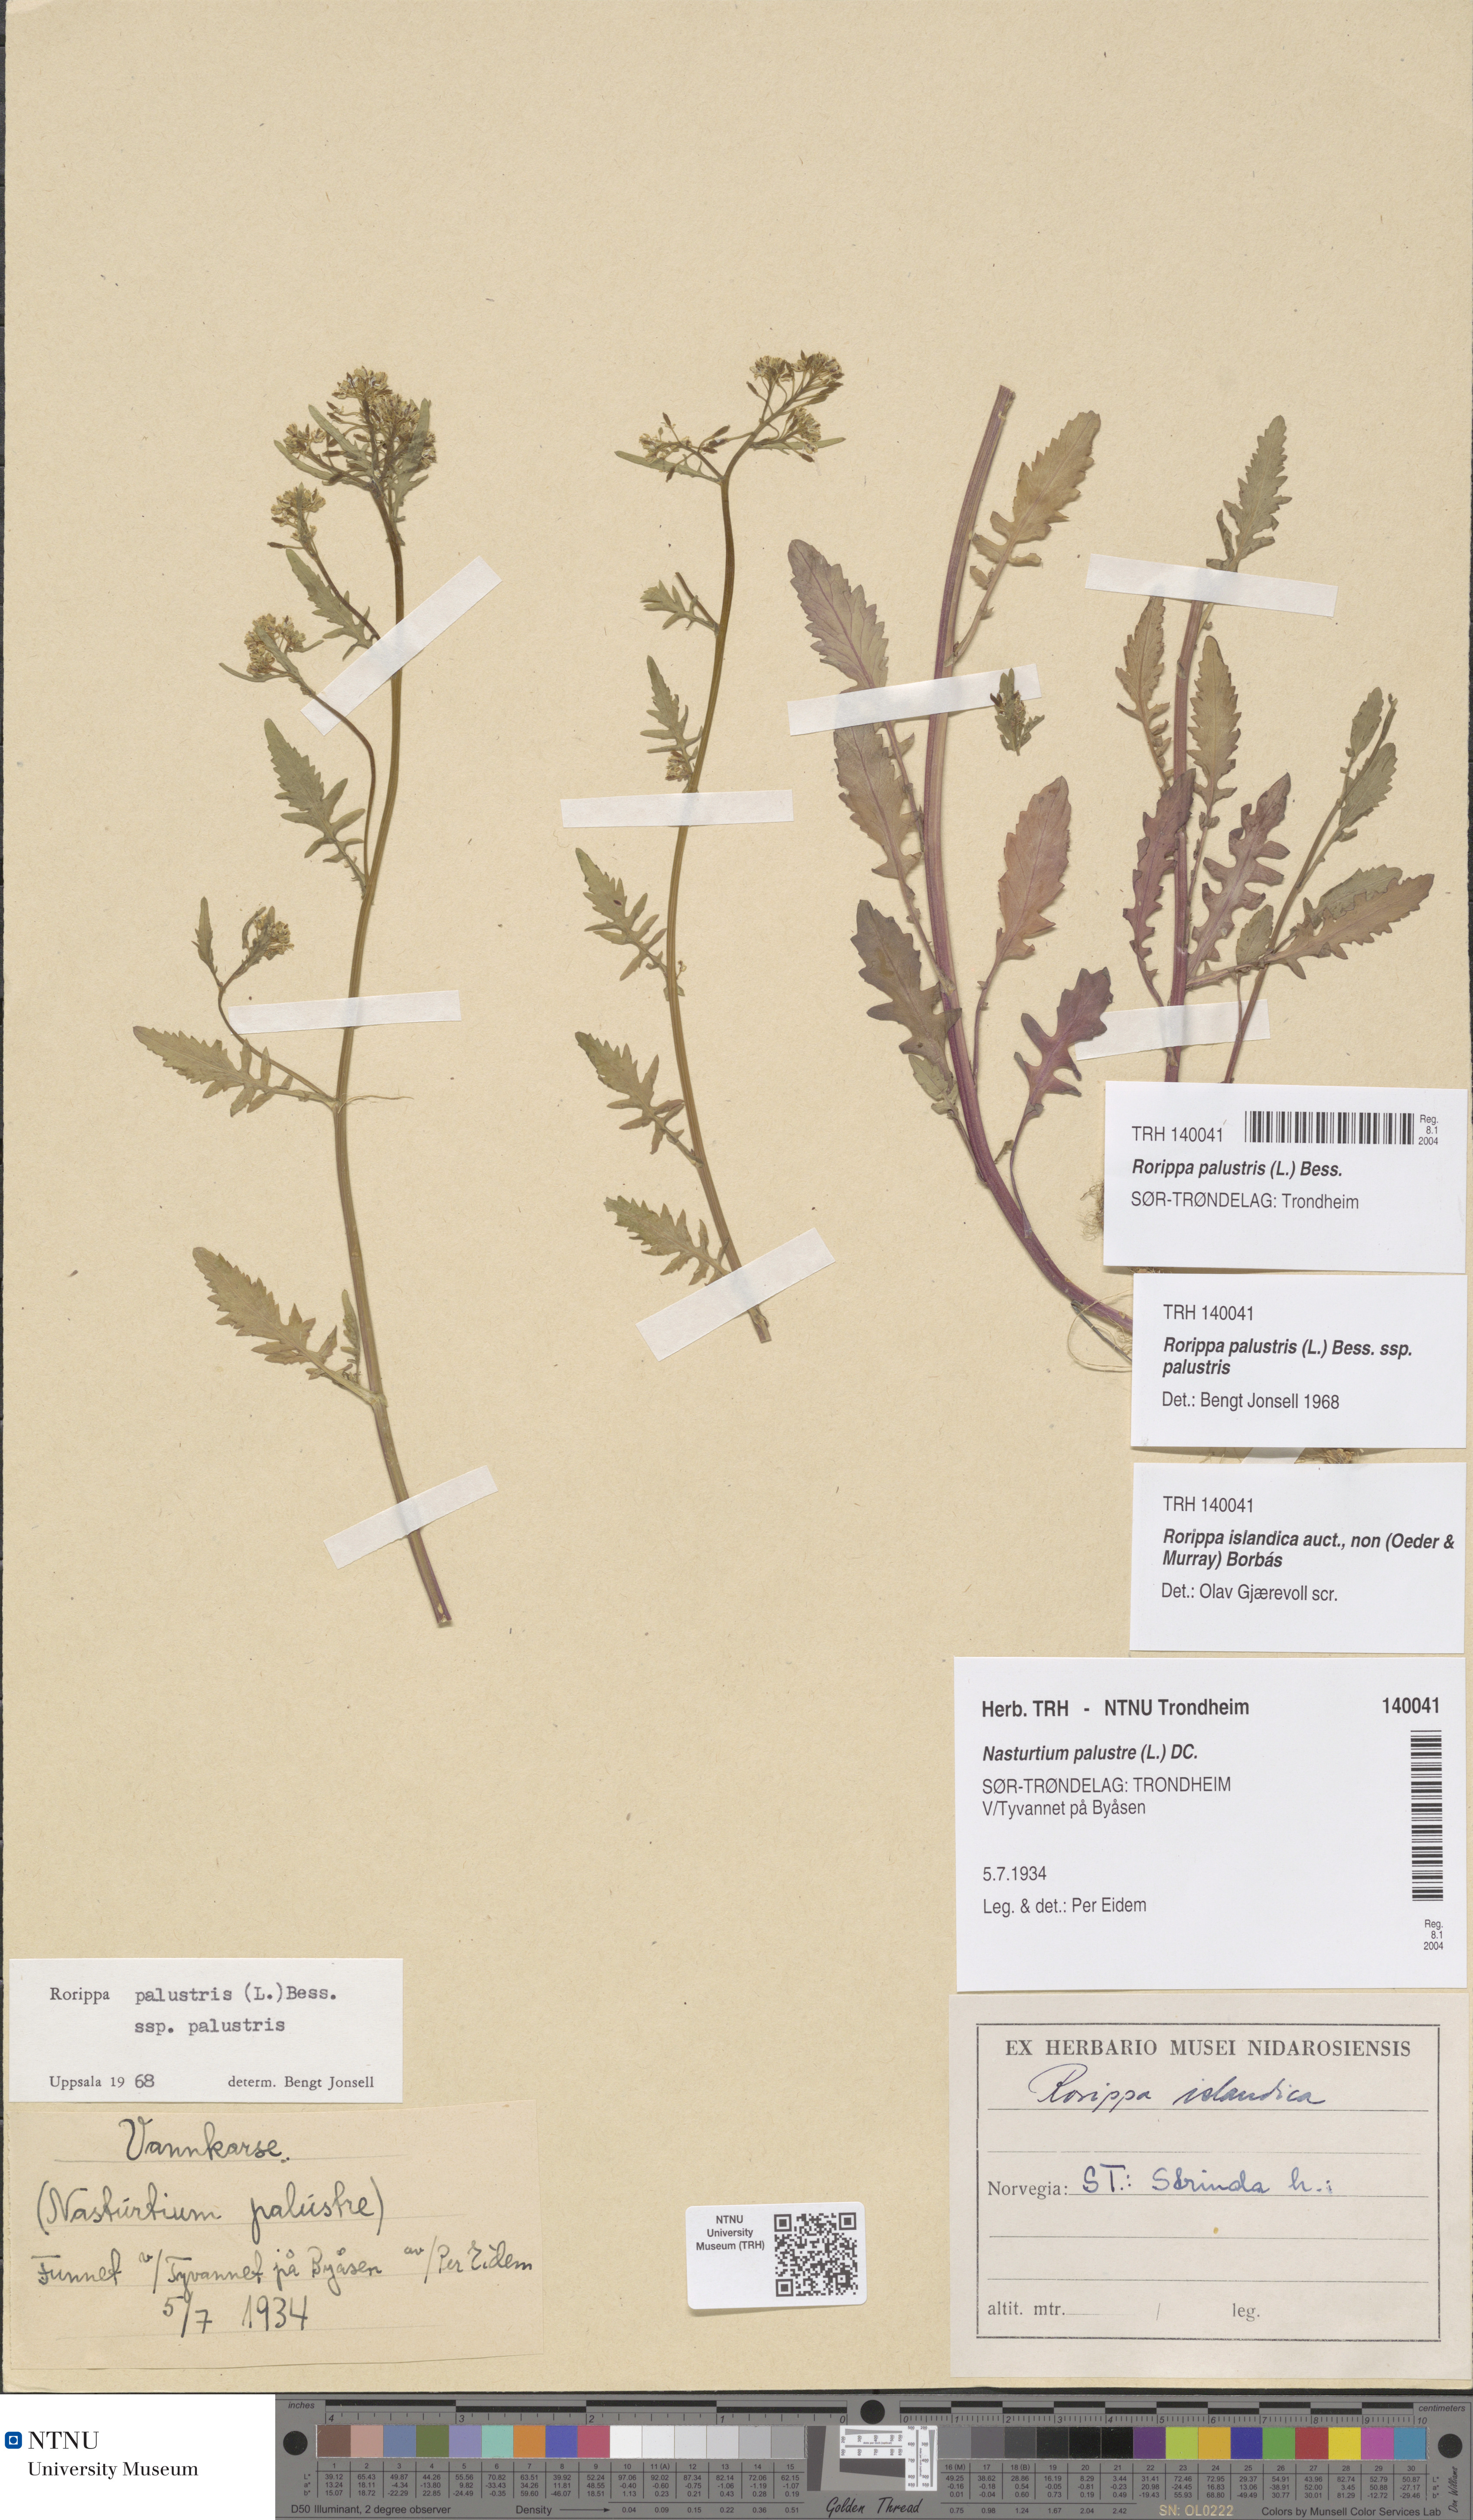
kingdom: Plantae
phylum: Tracheophyta
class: Magnoliopsida
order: Brassicales
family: Brassicaceae
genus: Rorippa
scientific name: Rorippa palustris
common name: Marsh yellow-cress
